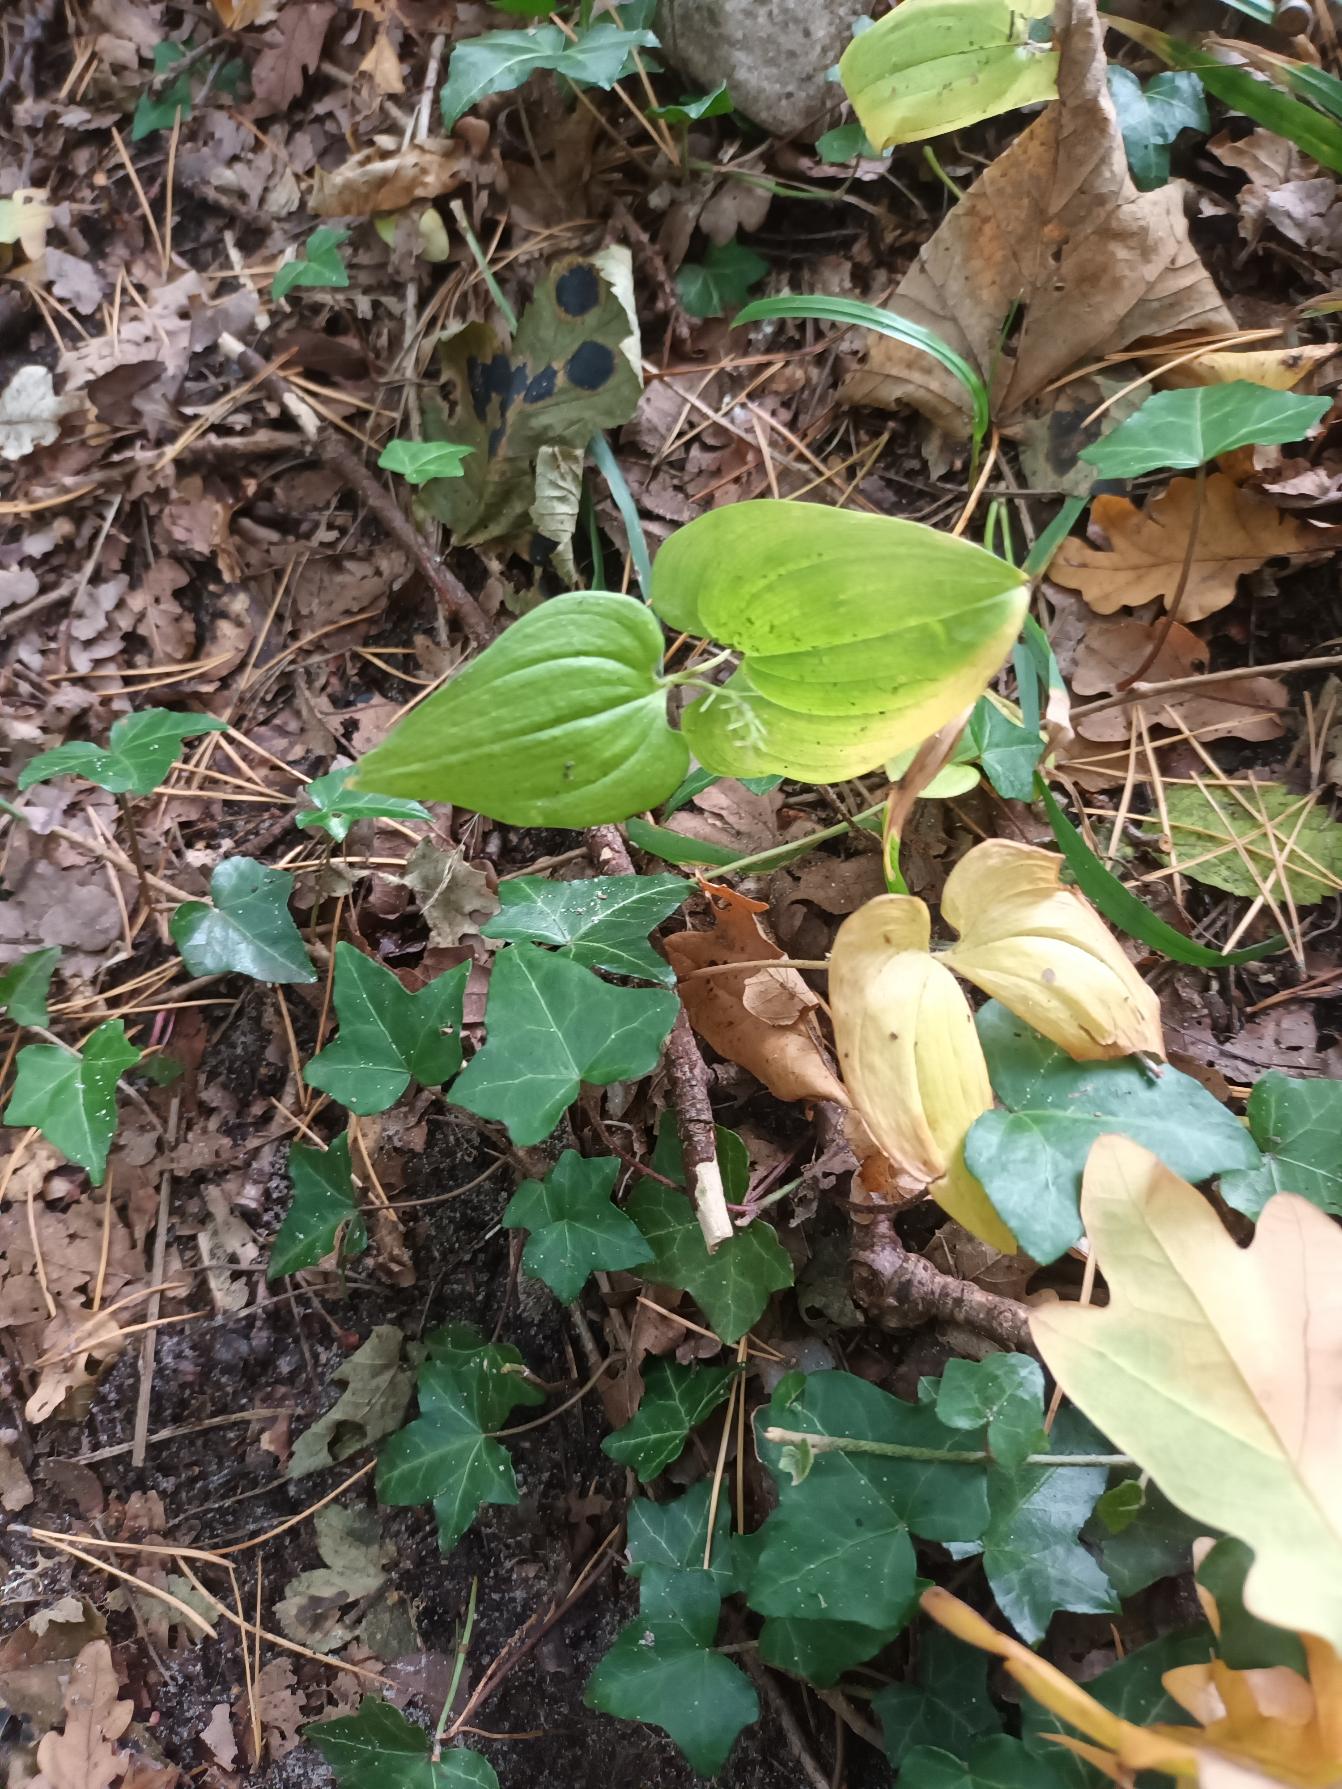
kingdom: Plantae
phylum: Tracheophyta
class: Liliopsida
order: Asparagales
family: Asparagaceae
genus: Maianthemum
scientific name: Maianthemum bifolium
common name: Majblomst
